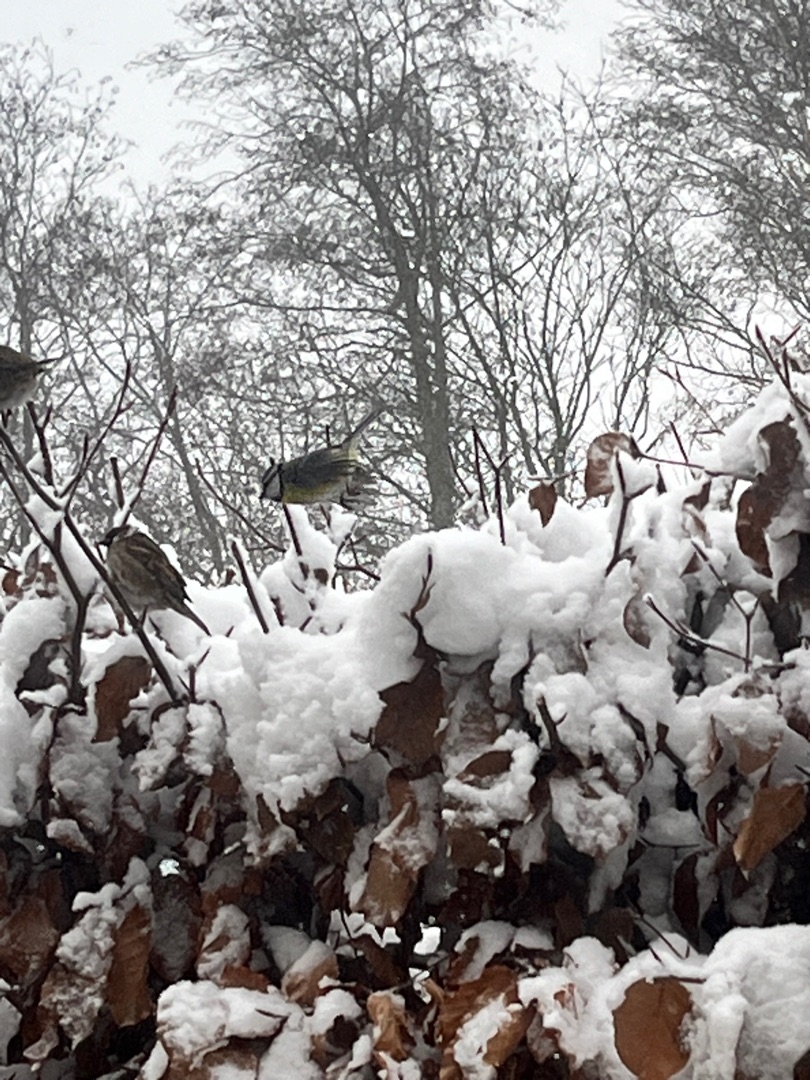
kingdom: Animalia
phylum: Chordata
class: Aves
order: Passeriformes
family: Paridae
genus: Cyanistes
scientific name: Cyanistes caeruleus
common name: Blåmejse
